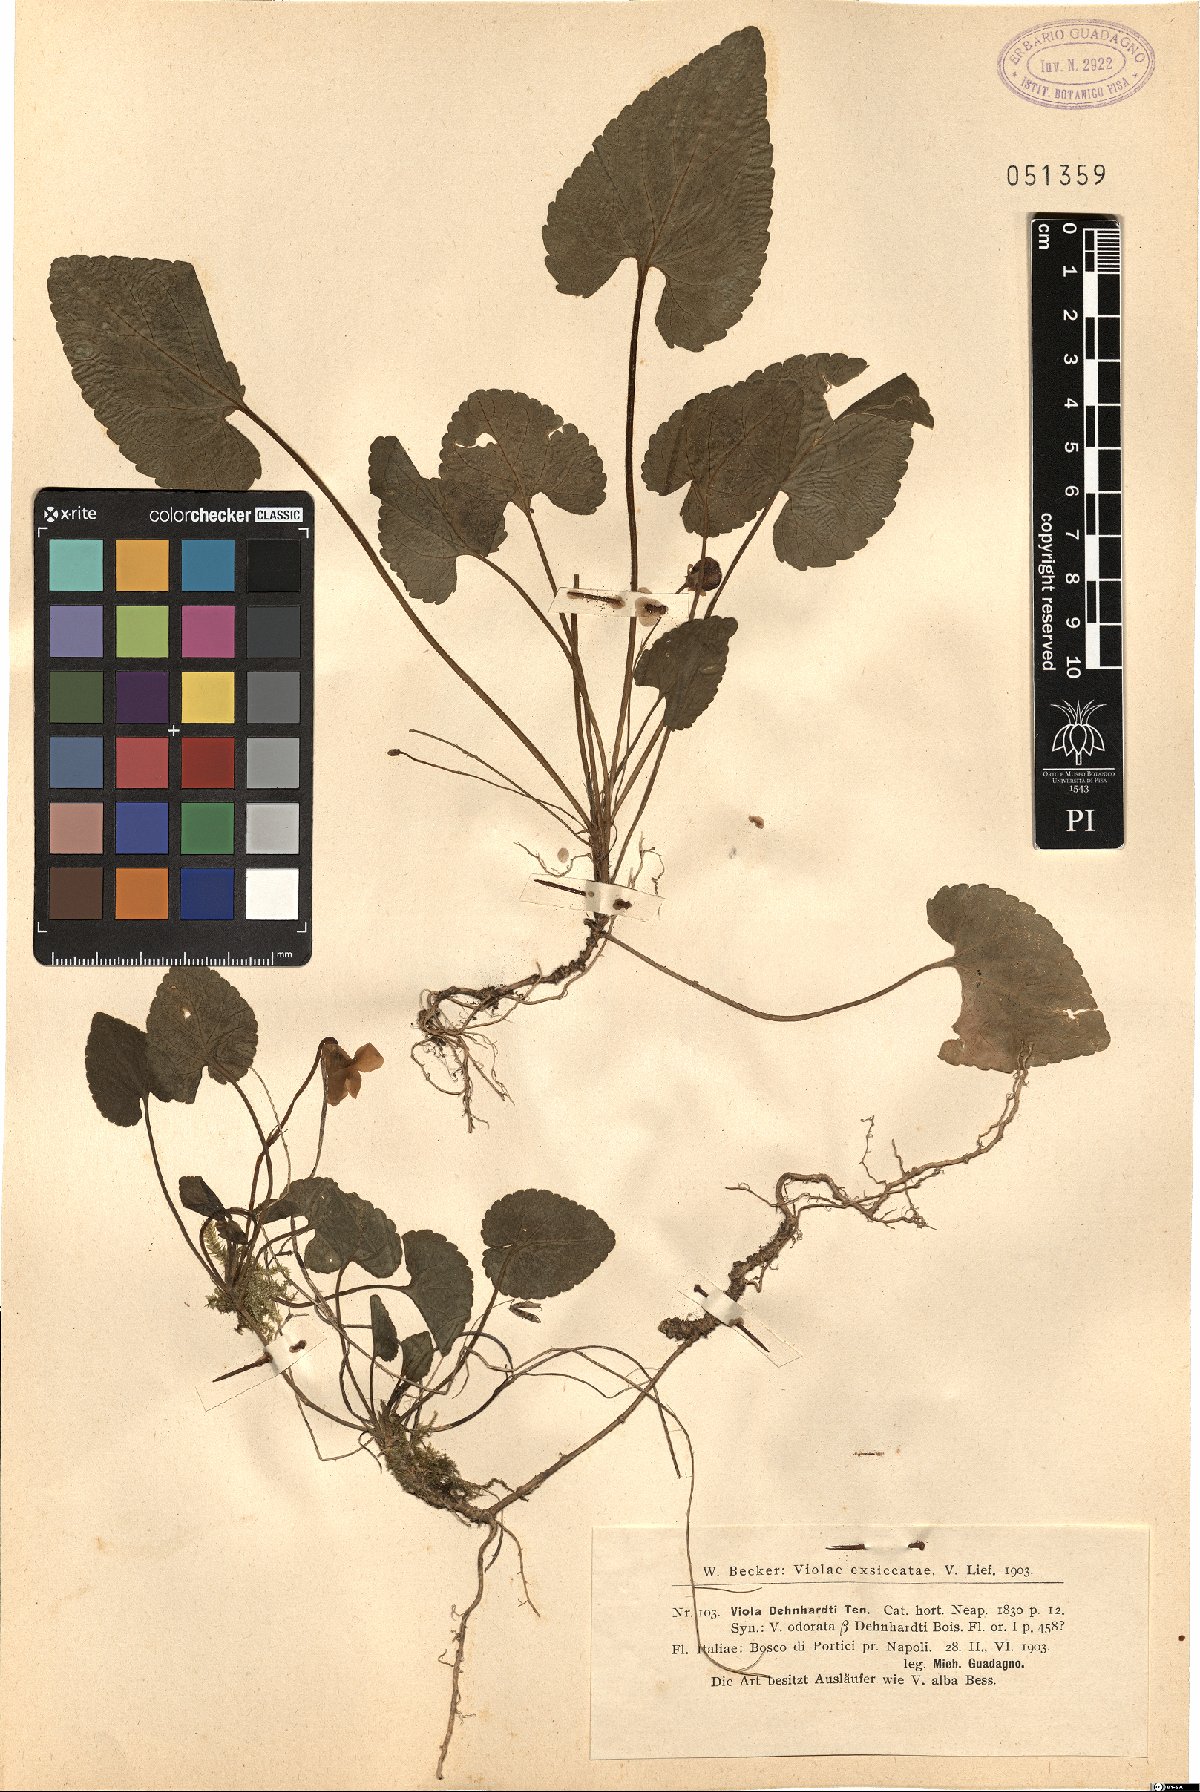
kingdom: Plantae
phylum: Tracheophyta
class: Magnoliopsida
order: Malpighiales
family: Violaceae
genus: Viola
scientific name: Viola alba
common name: White violet
